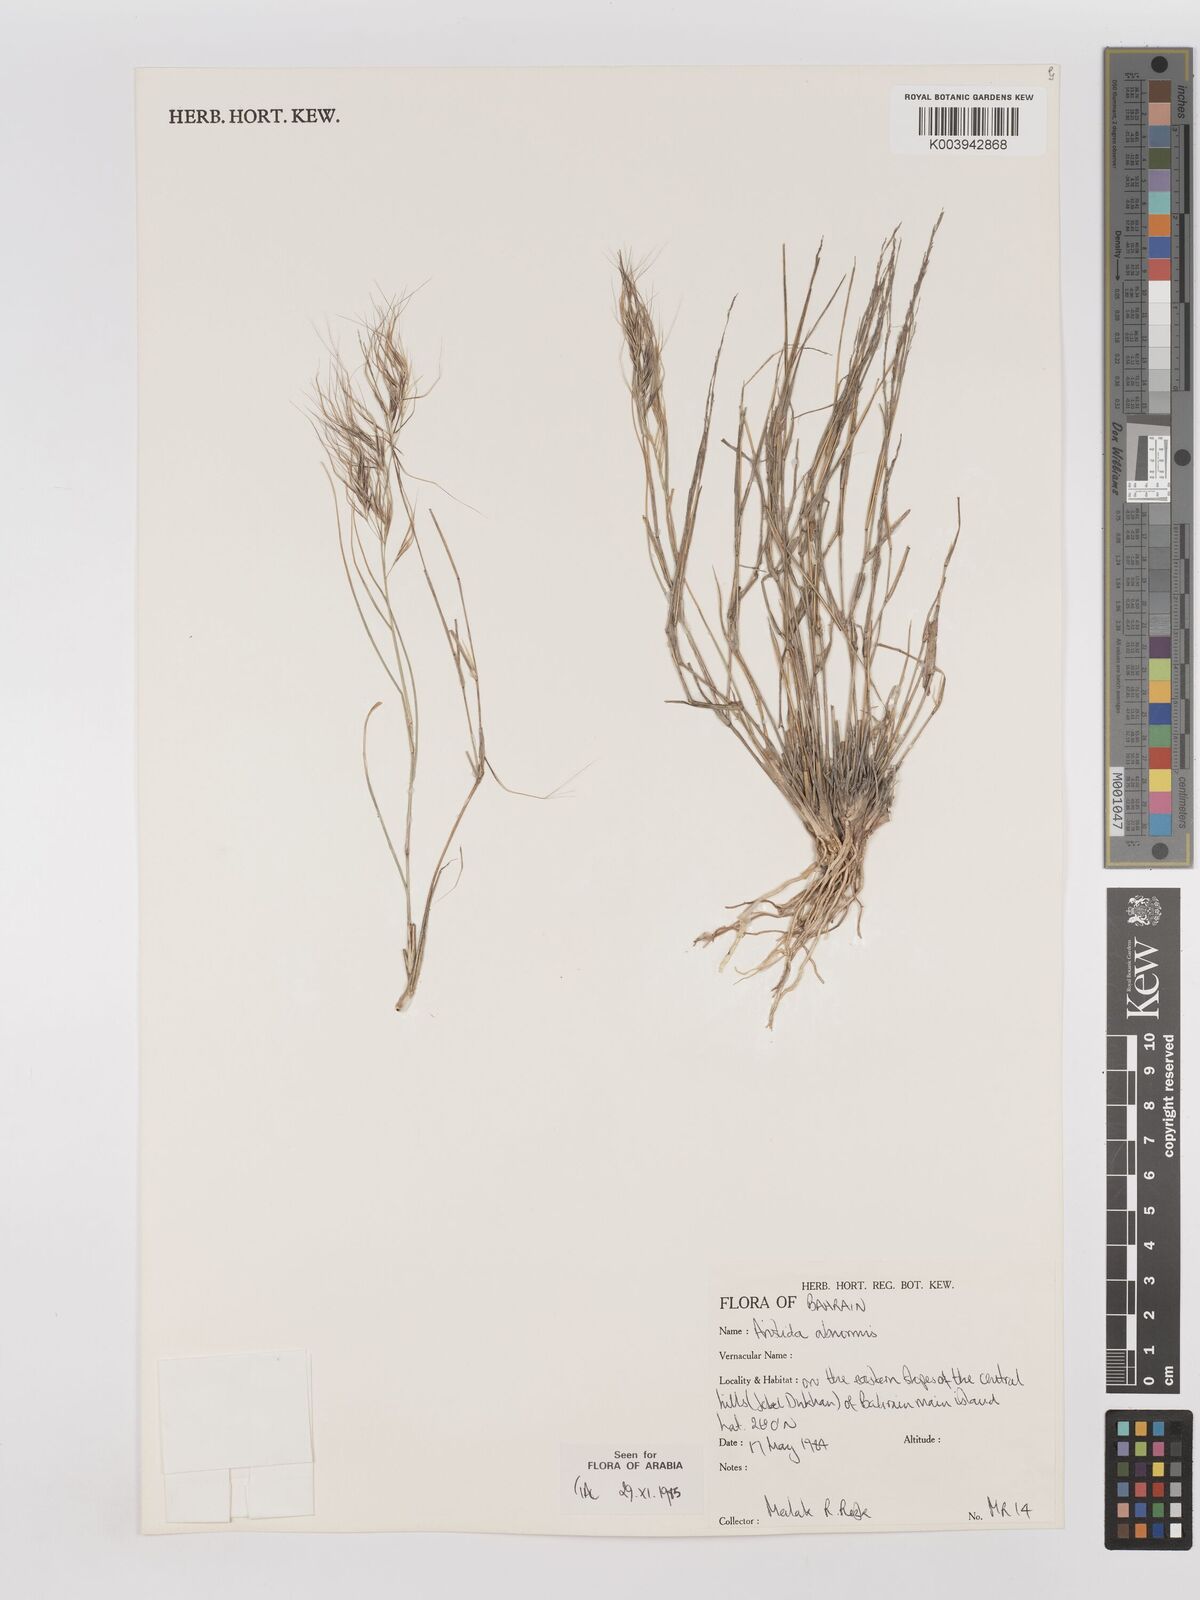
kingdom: Plantae
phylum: Tracheophyta
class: Liliopsida
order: Poales
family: Poaceae
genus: Aristida
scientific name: Aristida abnormis
